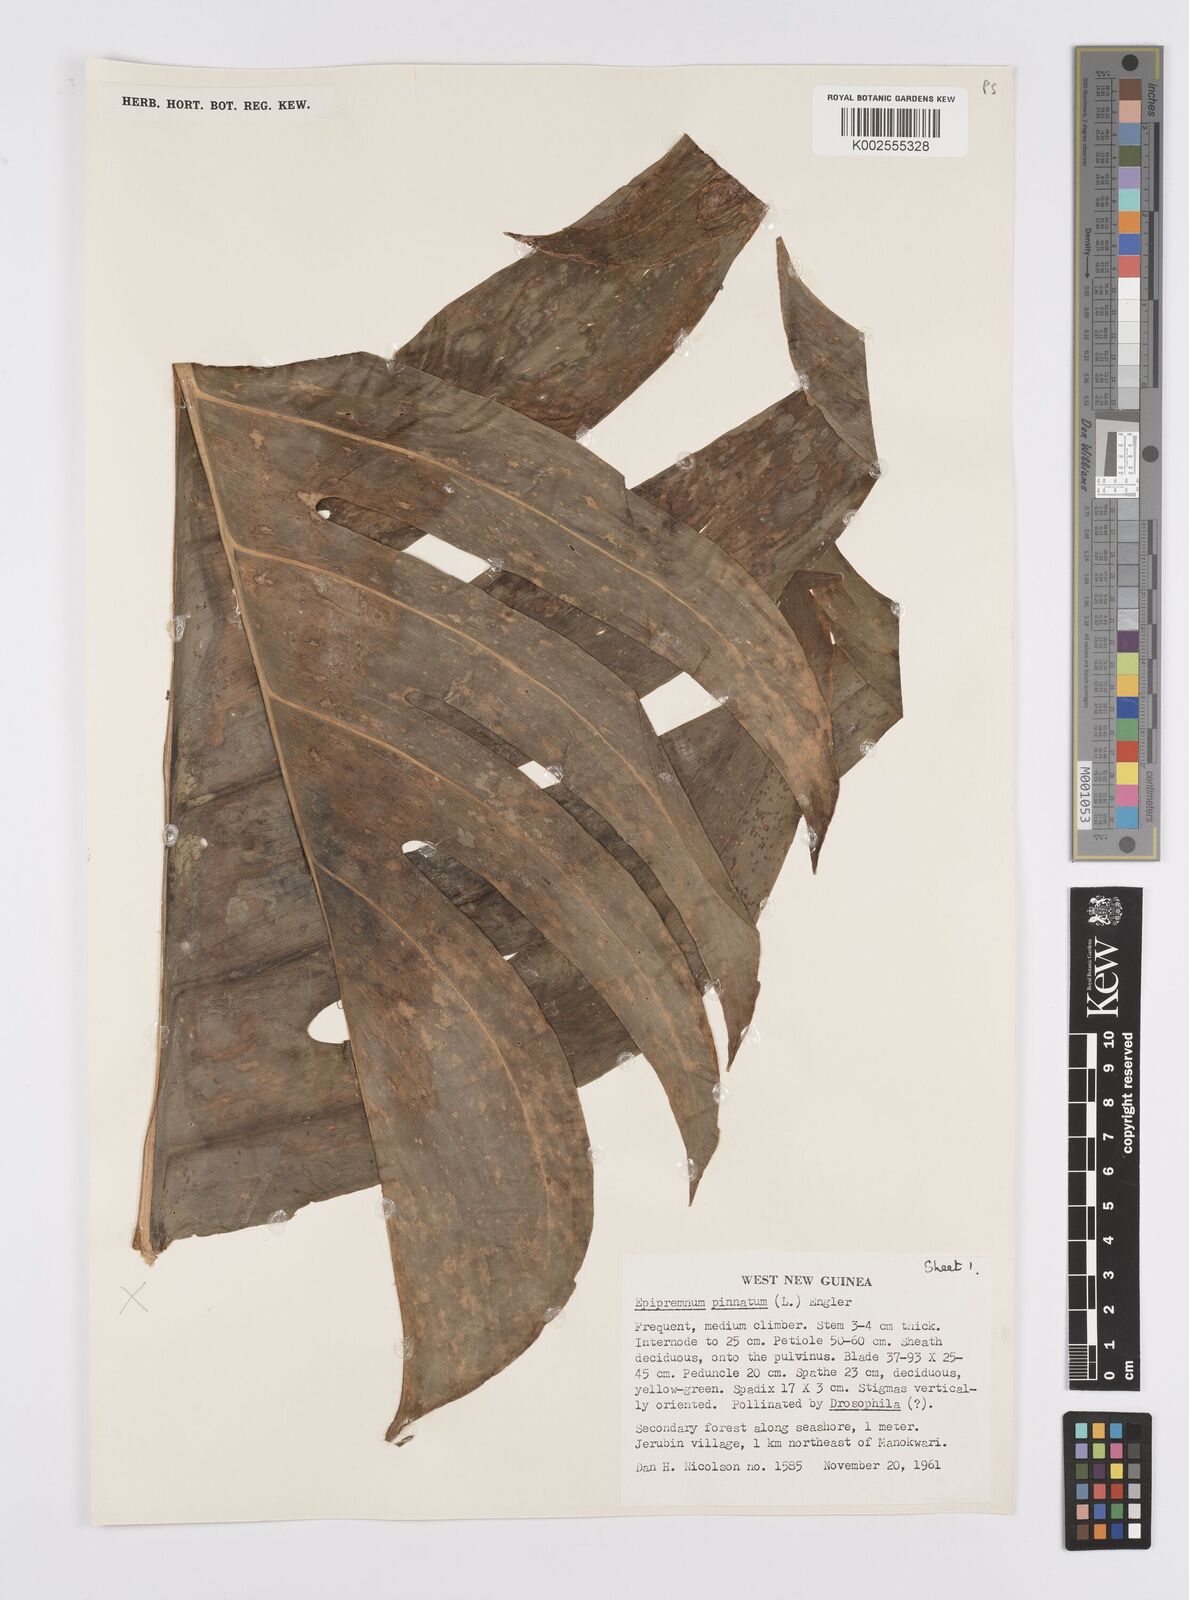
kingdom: Plantae
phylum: Tracheophyta
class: Liliopsida
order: Alismatales
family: Araceae
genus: Epipremnum
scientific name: Epipremnum pinnatum
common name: Centipede tongavine
